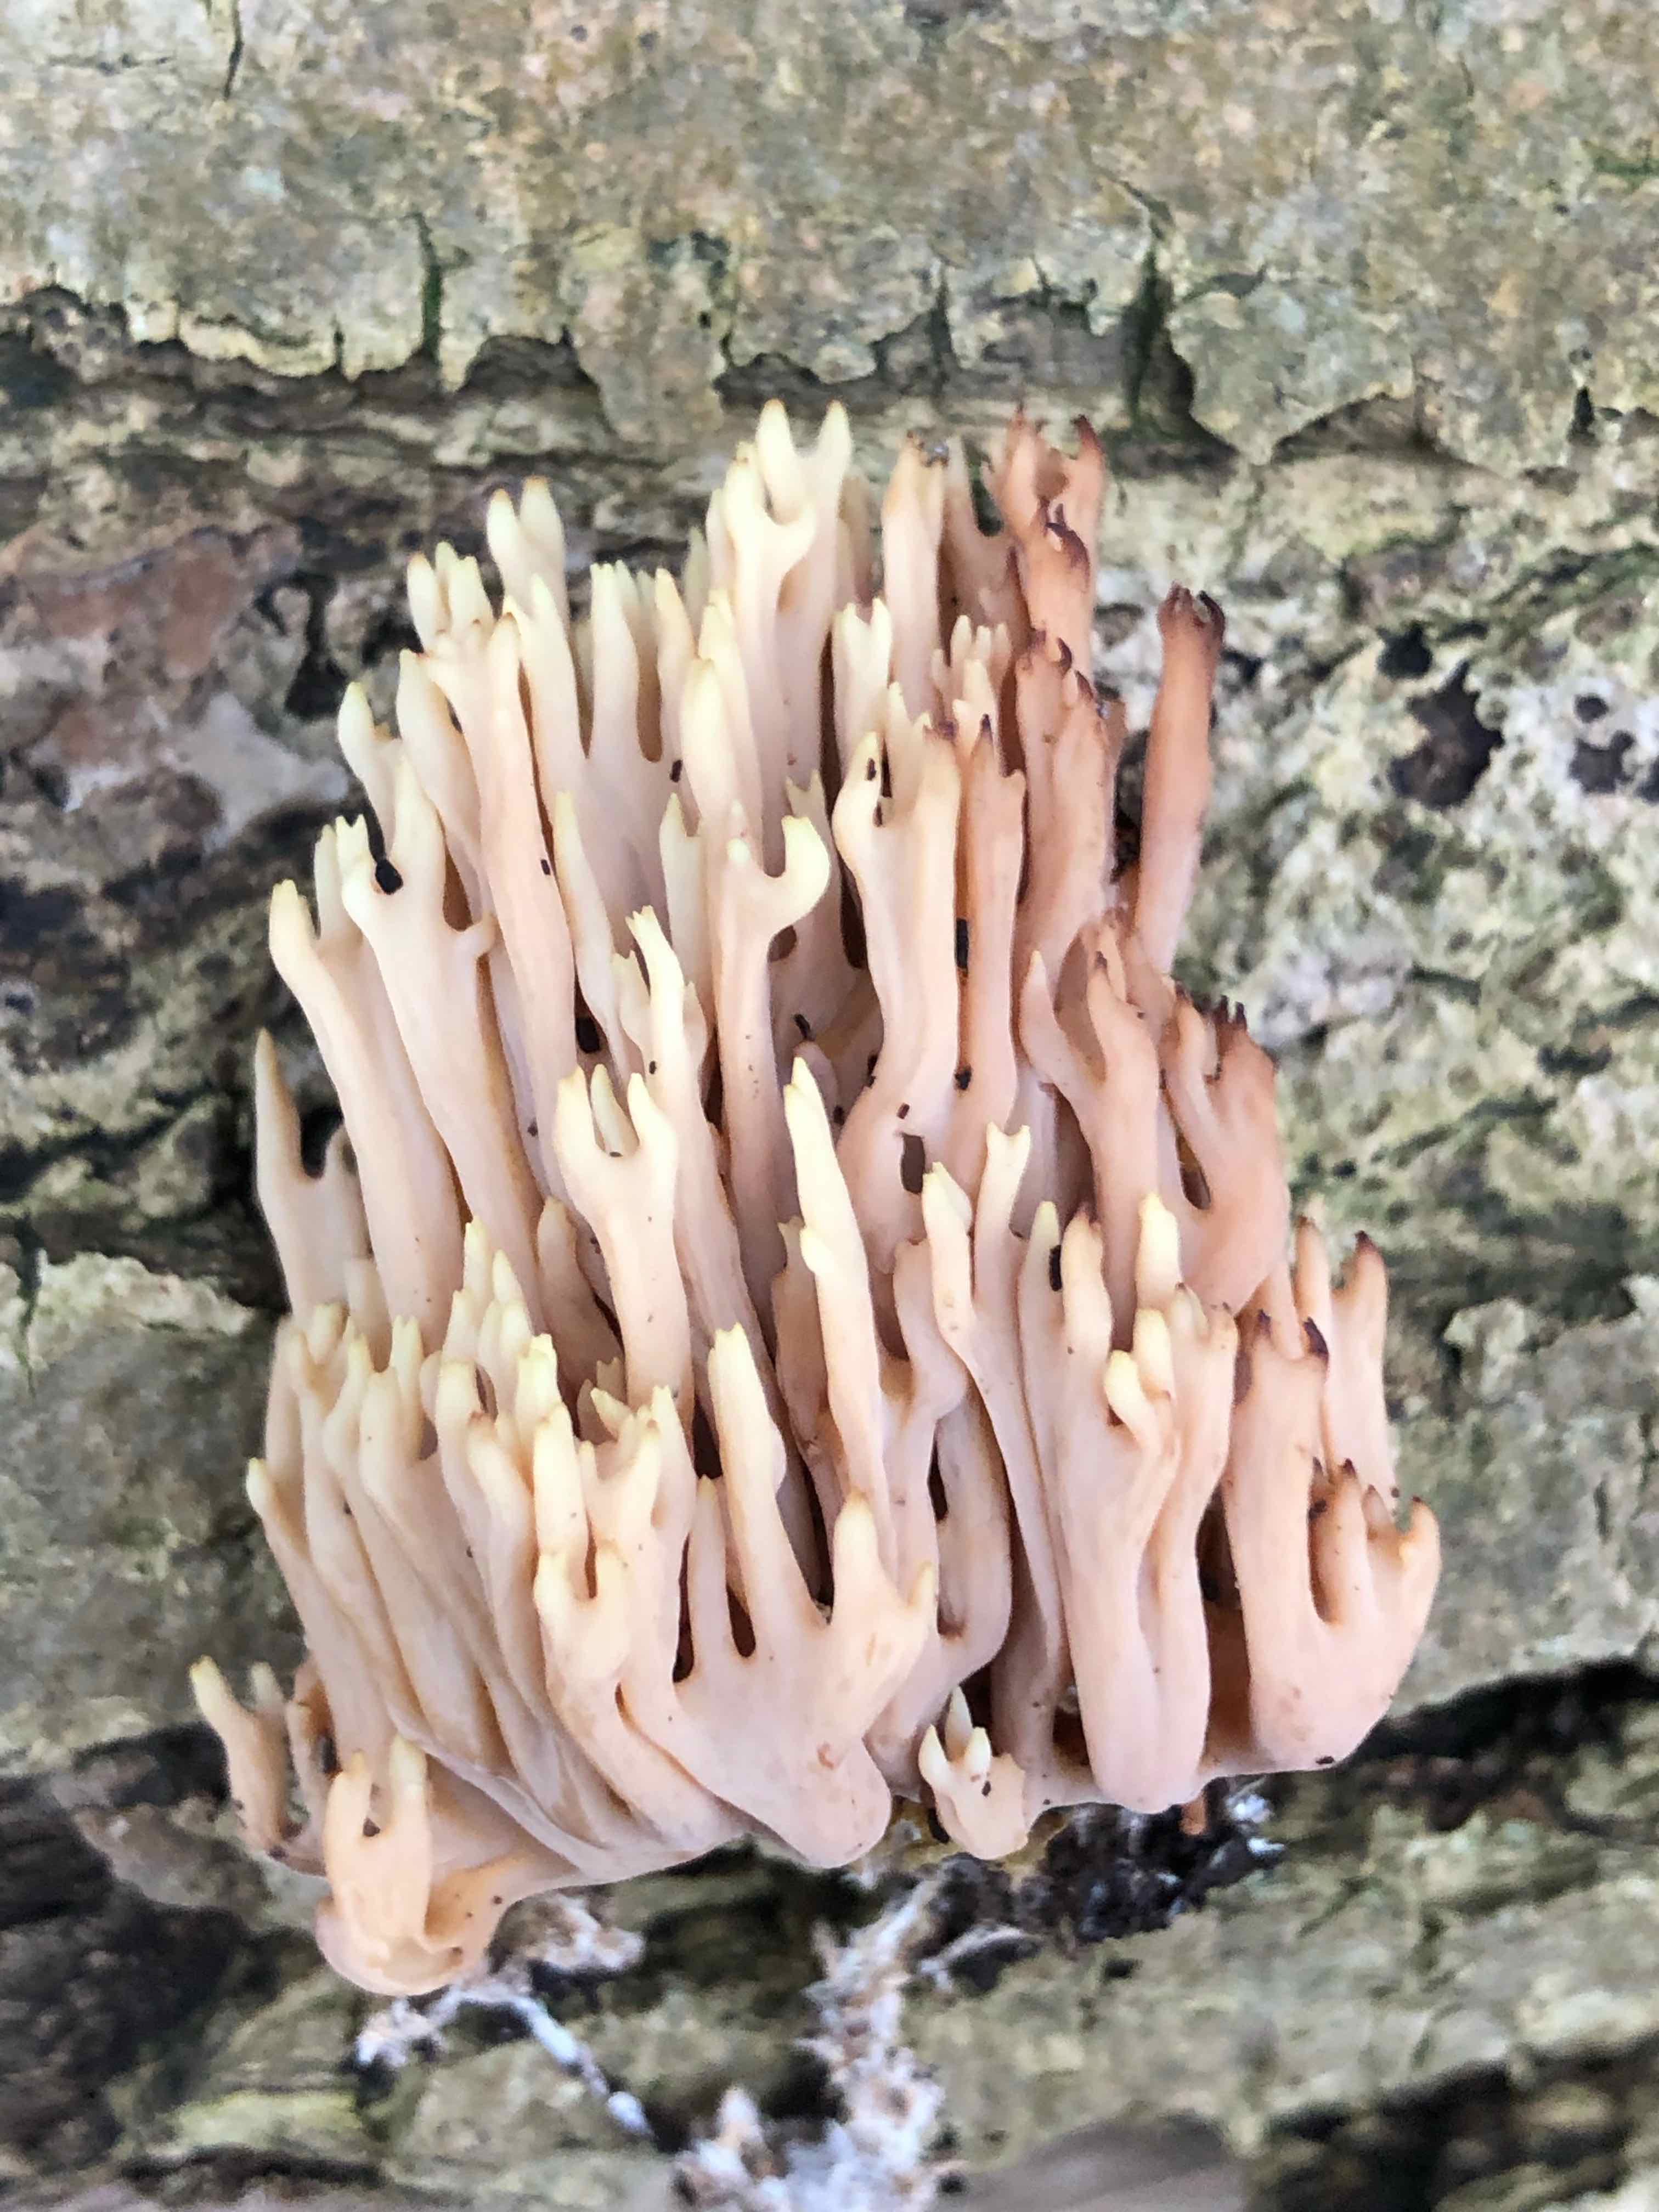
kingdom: Fungi
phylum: Basidiomycota
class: Agaricomycetes
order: Gomphales
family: Gomphaceae
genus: Ramaria
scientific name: Ramaria stricta
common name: rank koralsvamp
